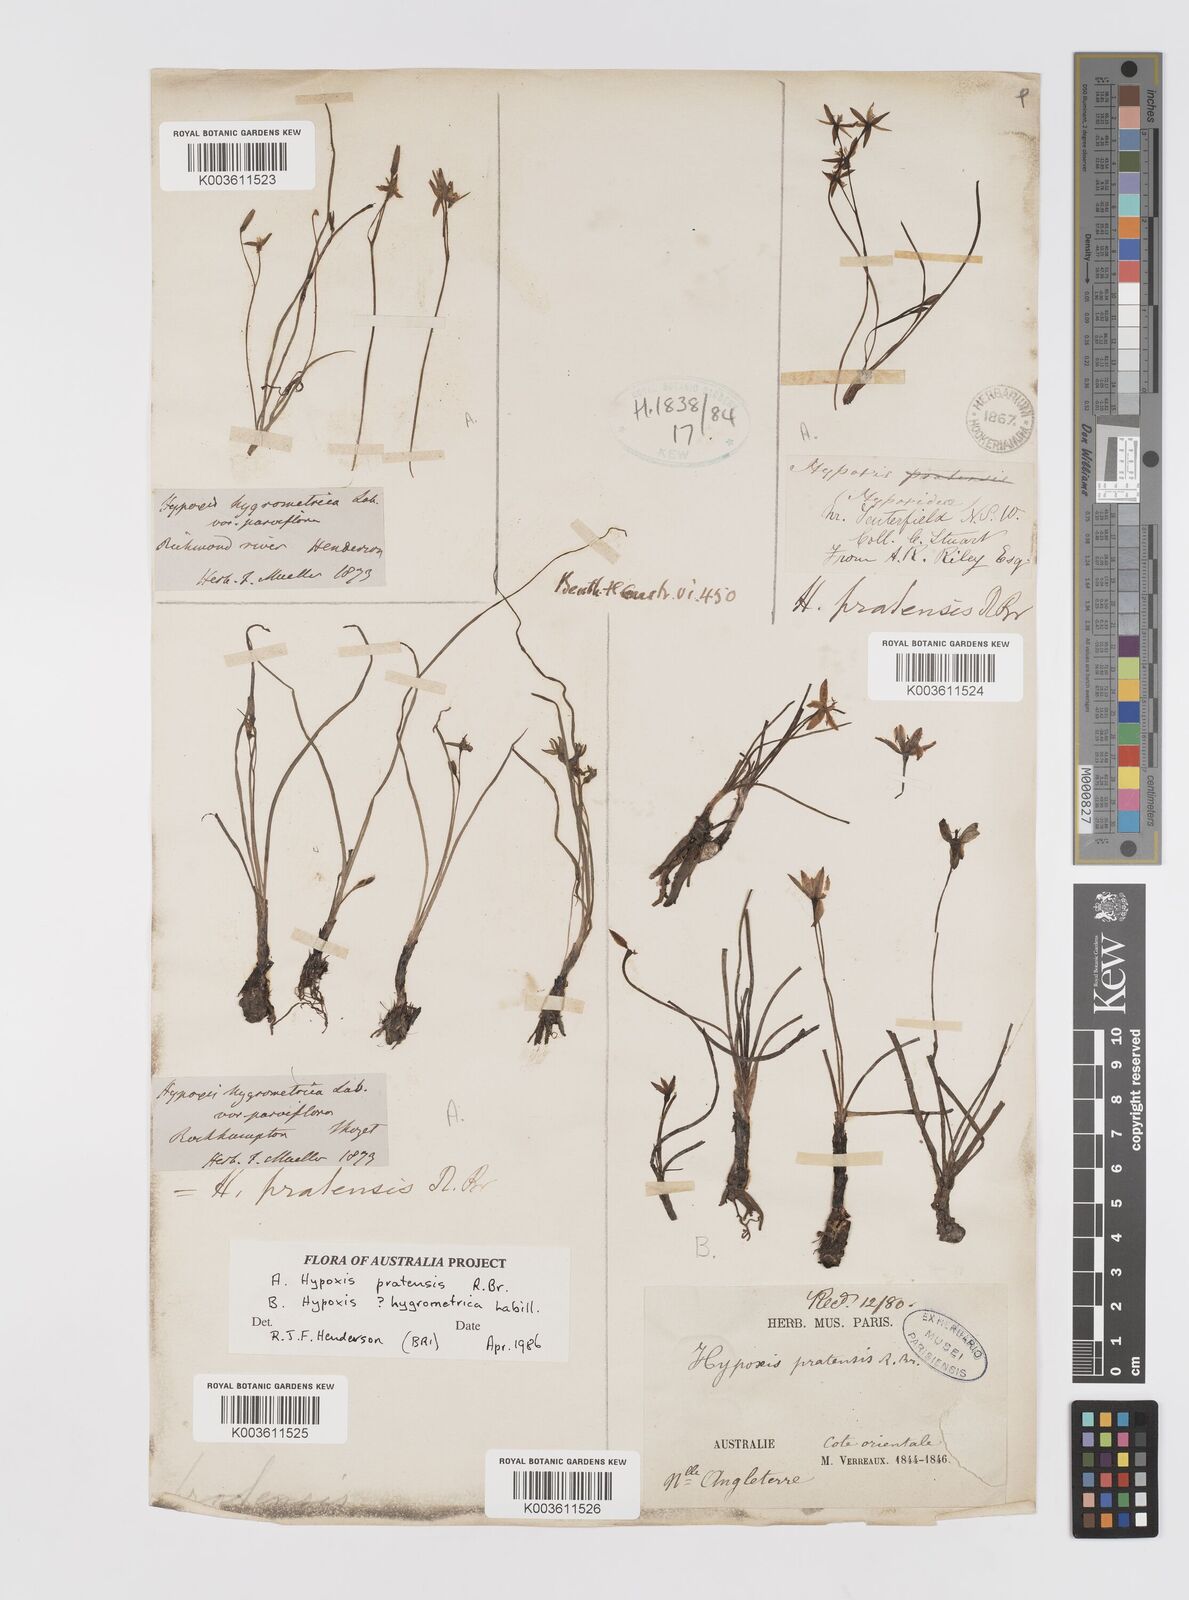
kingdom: Plantae
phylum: Tracheophyta
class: Liliopsida
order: Asparagales
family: Hypoxidaceae
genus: Hypoxis
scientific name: Hypoxis pratensis
